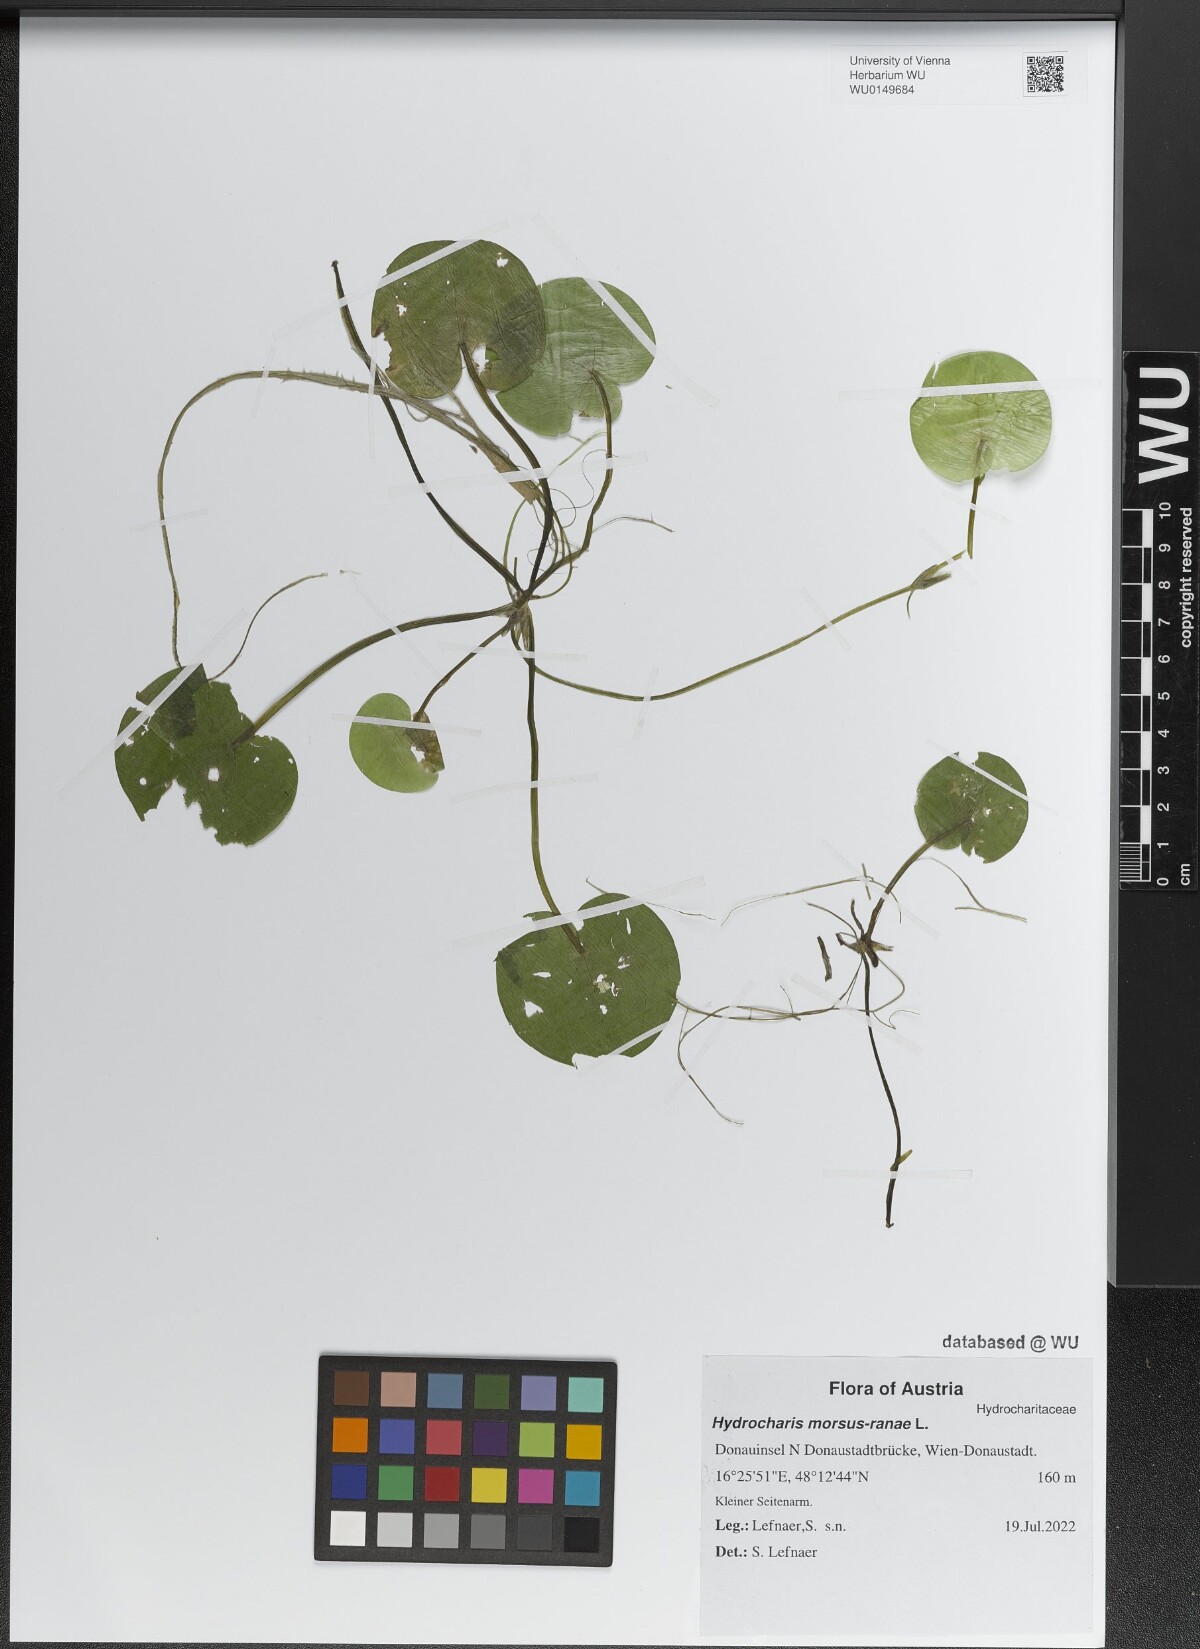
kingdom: Plantae
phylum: Tracheophyta
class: Liliopsida
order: Alismatales
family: Hydrocharitaceae
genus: Hydrocharis
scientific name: Hydrocharis morsus-ranae
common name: Frogbit
